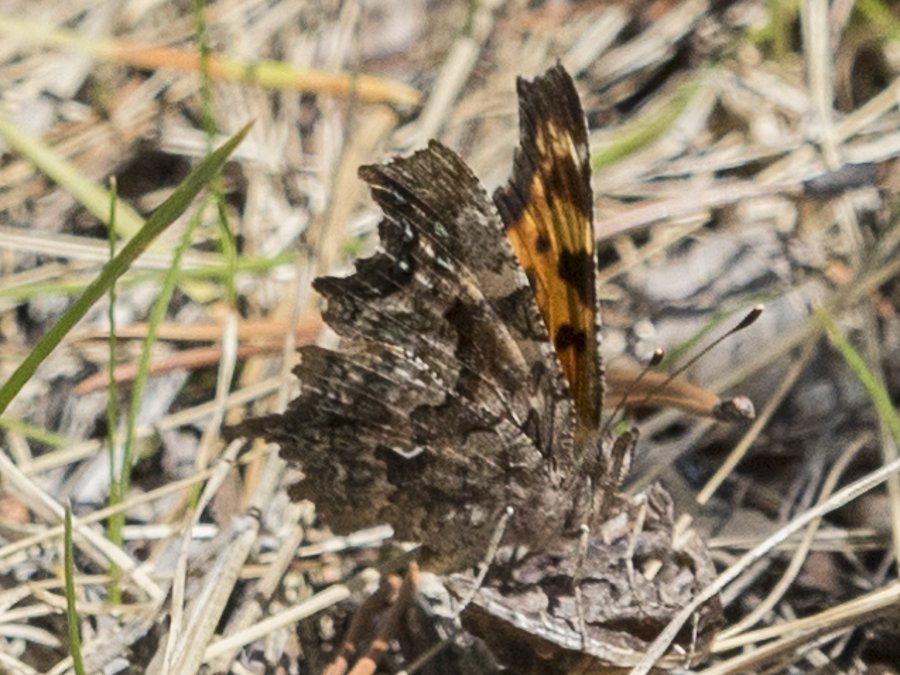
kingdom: Animalia
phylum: Arthropoda
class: Insecta
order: Lepidoptera
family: Nymphalidae
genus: Polygonia
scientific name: Polygonia faunus
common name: Green Comma
